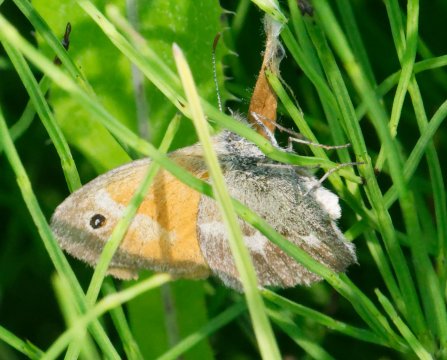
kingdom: Animalia
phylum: Arthropoda
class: Insecta
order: Lepidoptera
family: Nymphalidae
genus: Coenonympha
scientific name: Coenonympha california
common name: California Ringlet
